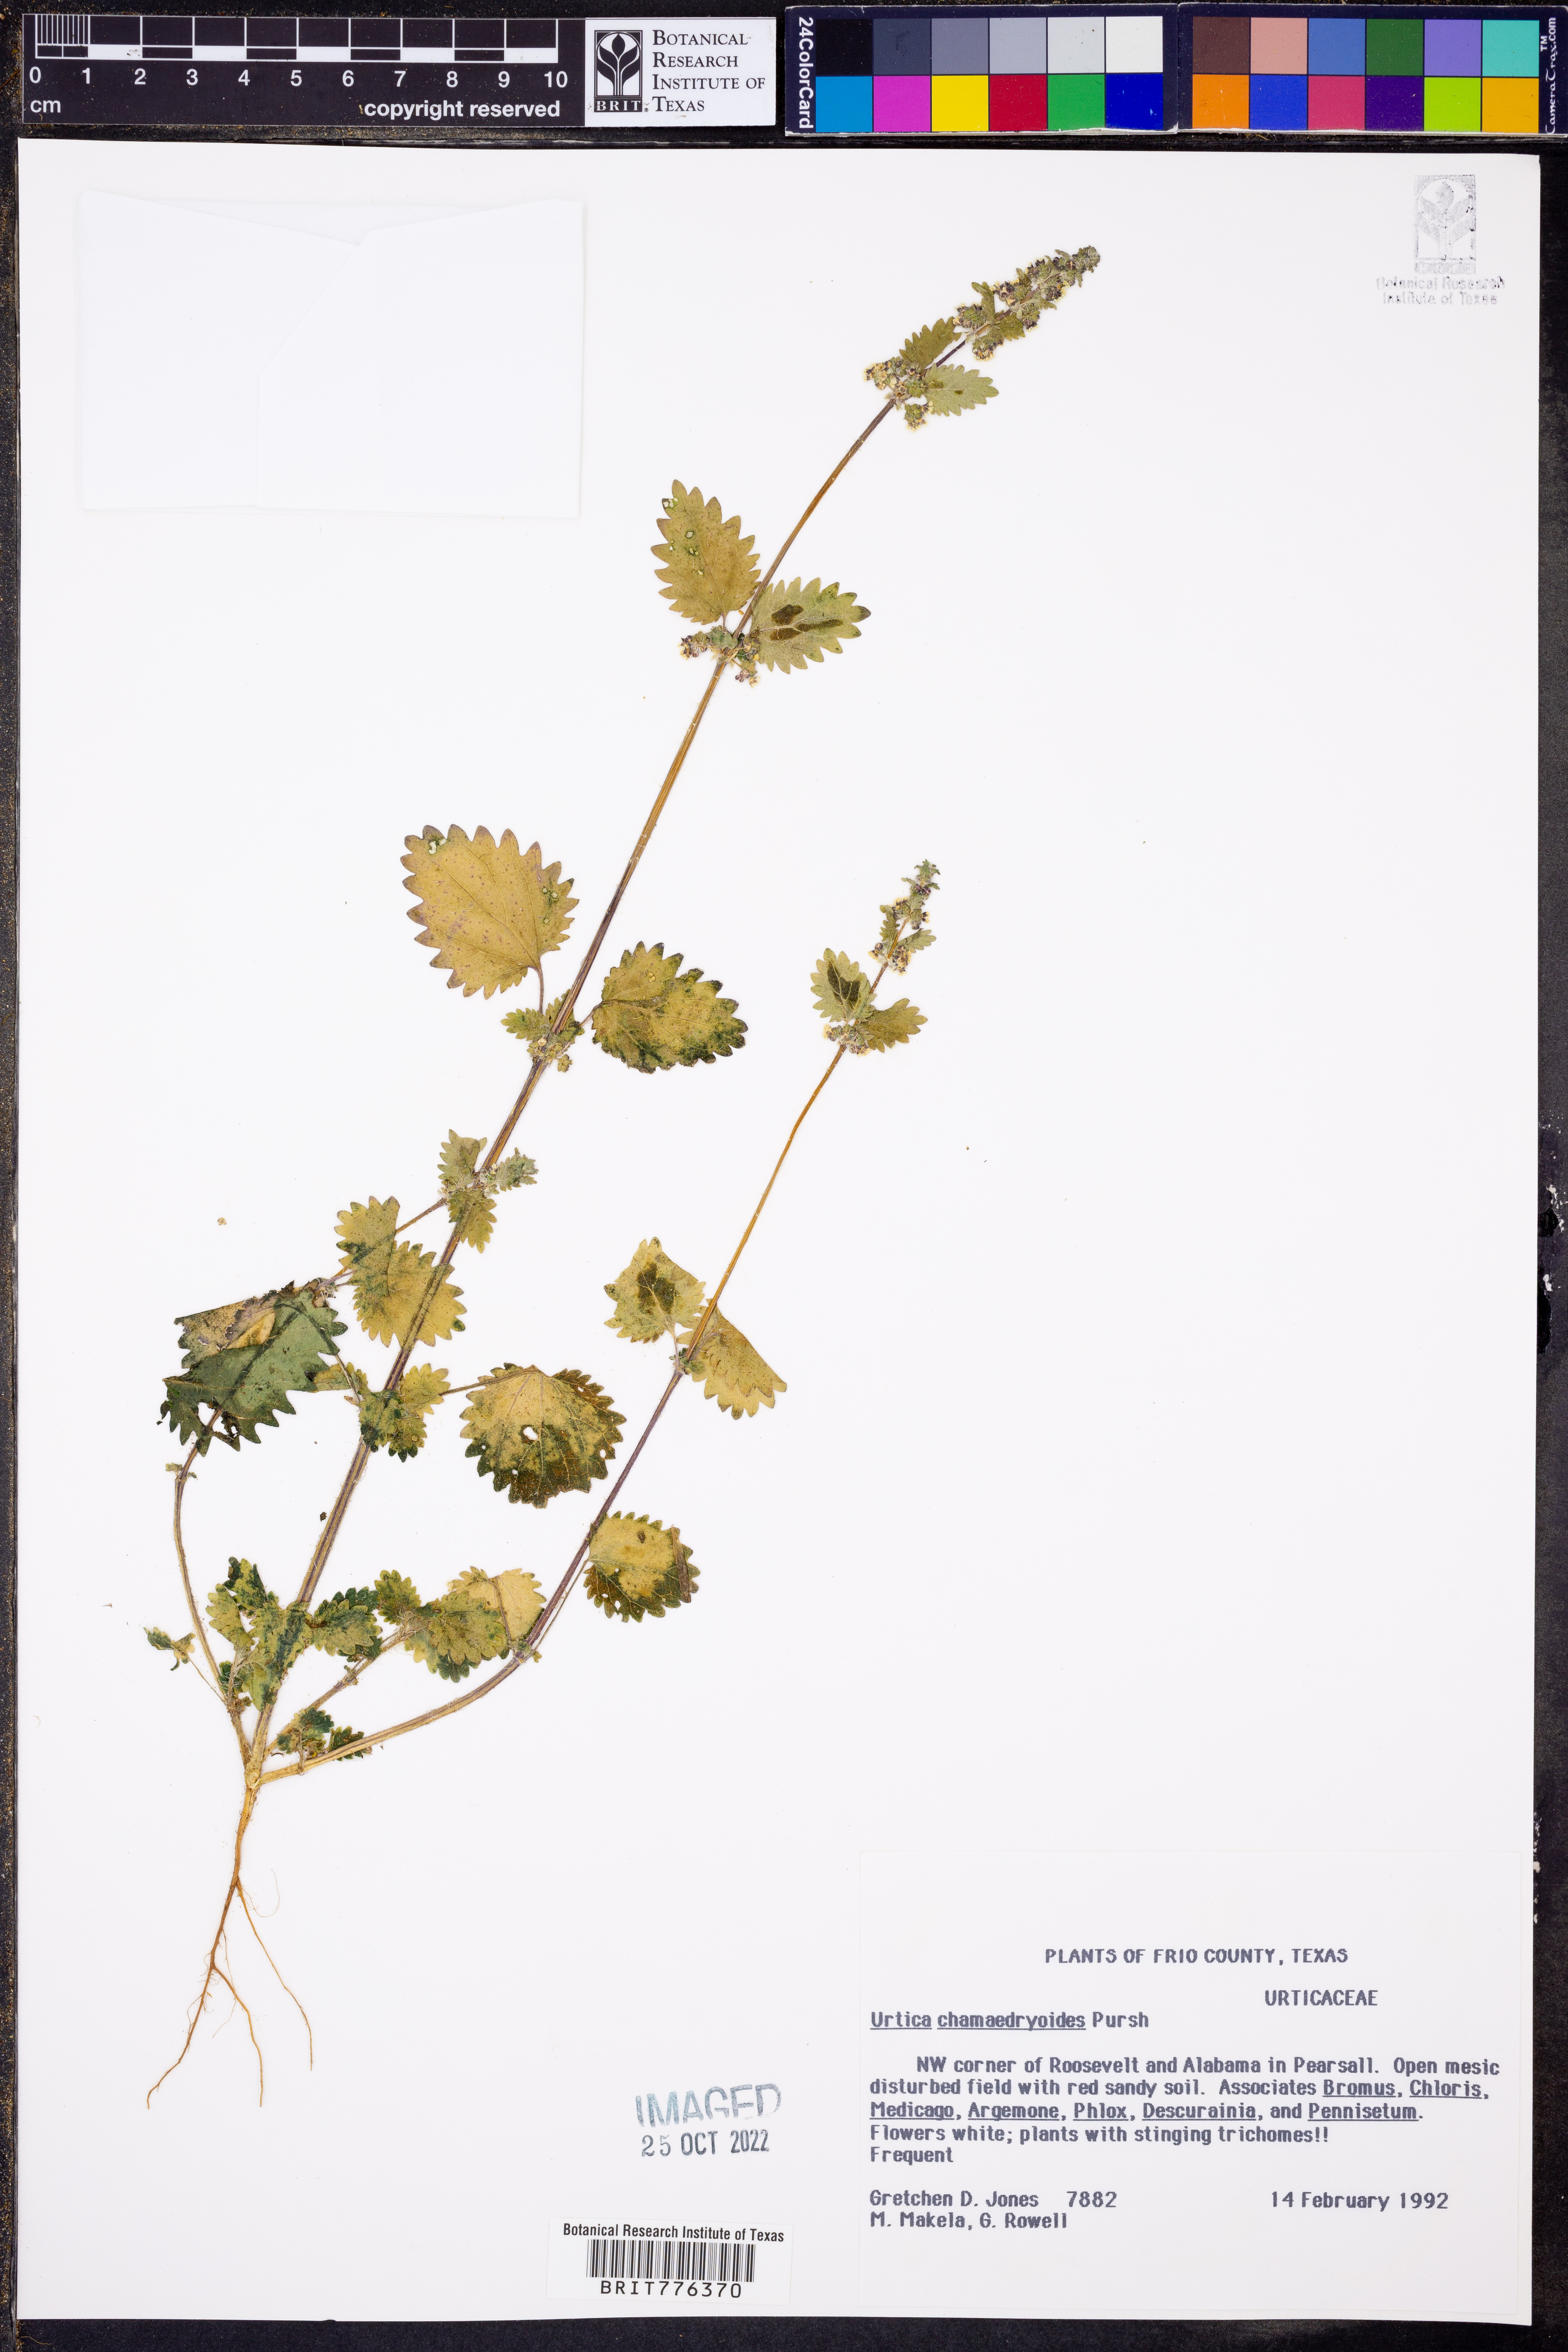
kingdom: Plantae
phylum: Tracheophyta
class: Magnoliopsida
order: Rosales
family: Urticaceae
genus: Urtica
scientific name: Urtica chamaedryoides
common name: Heart-leaf nettle
